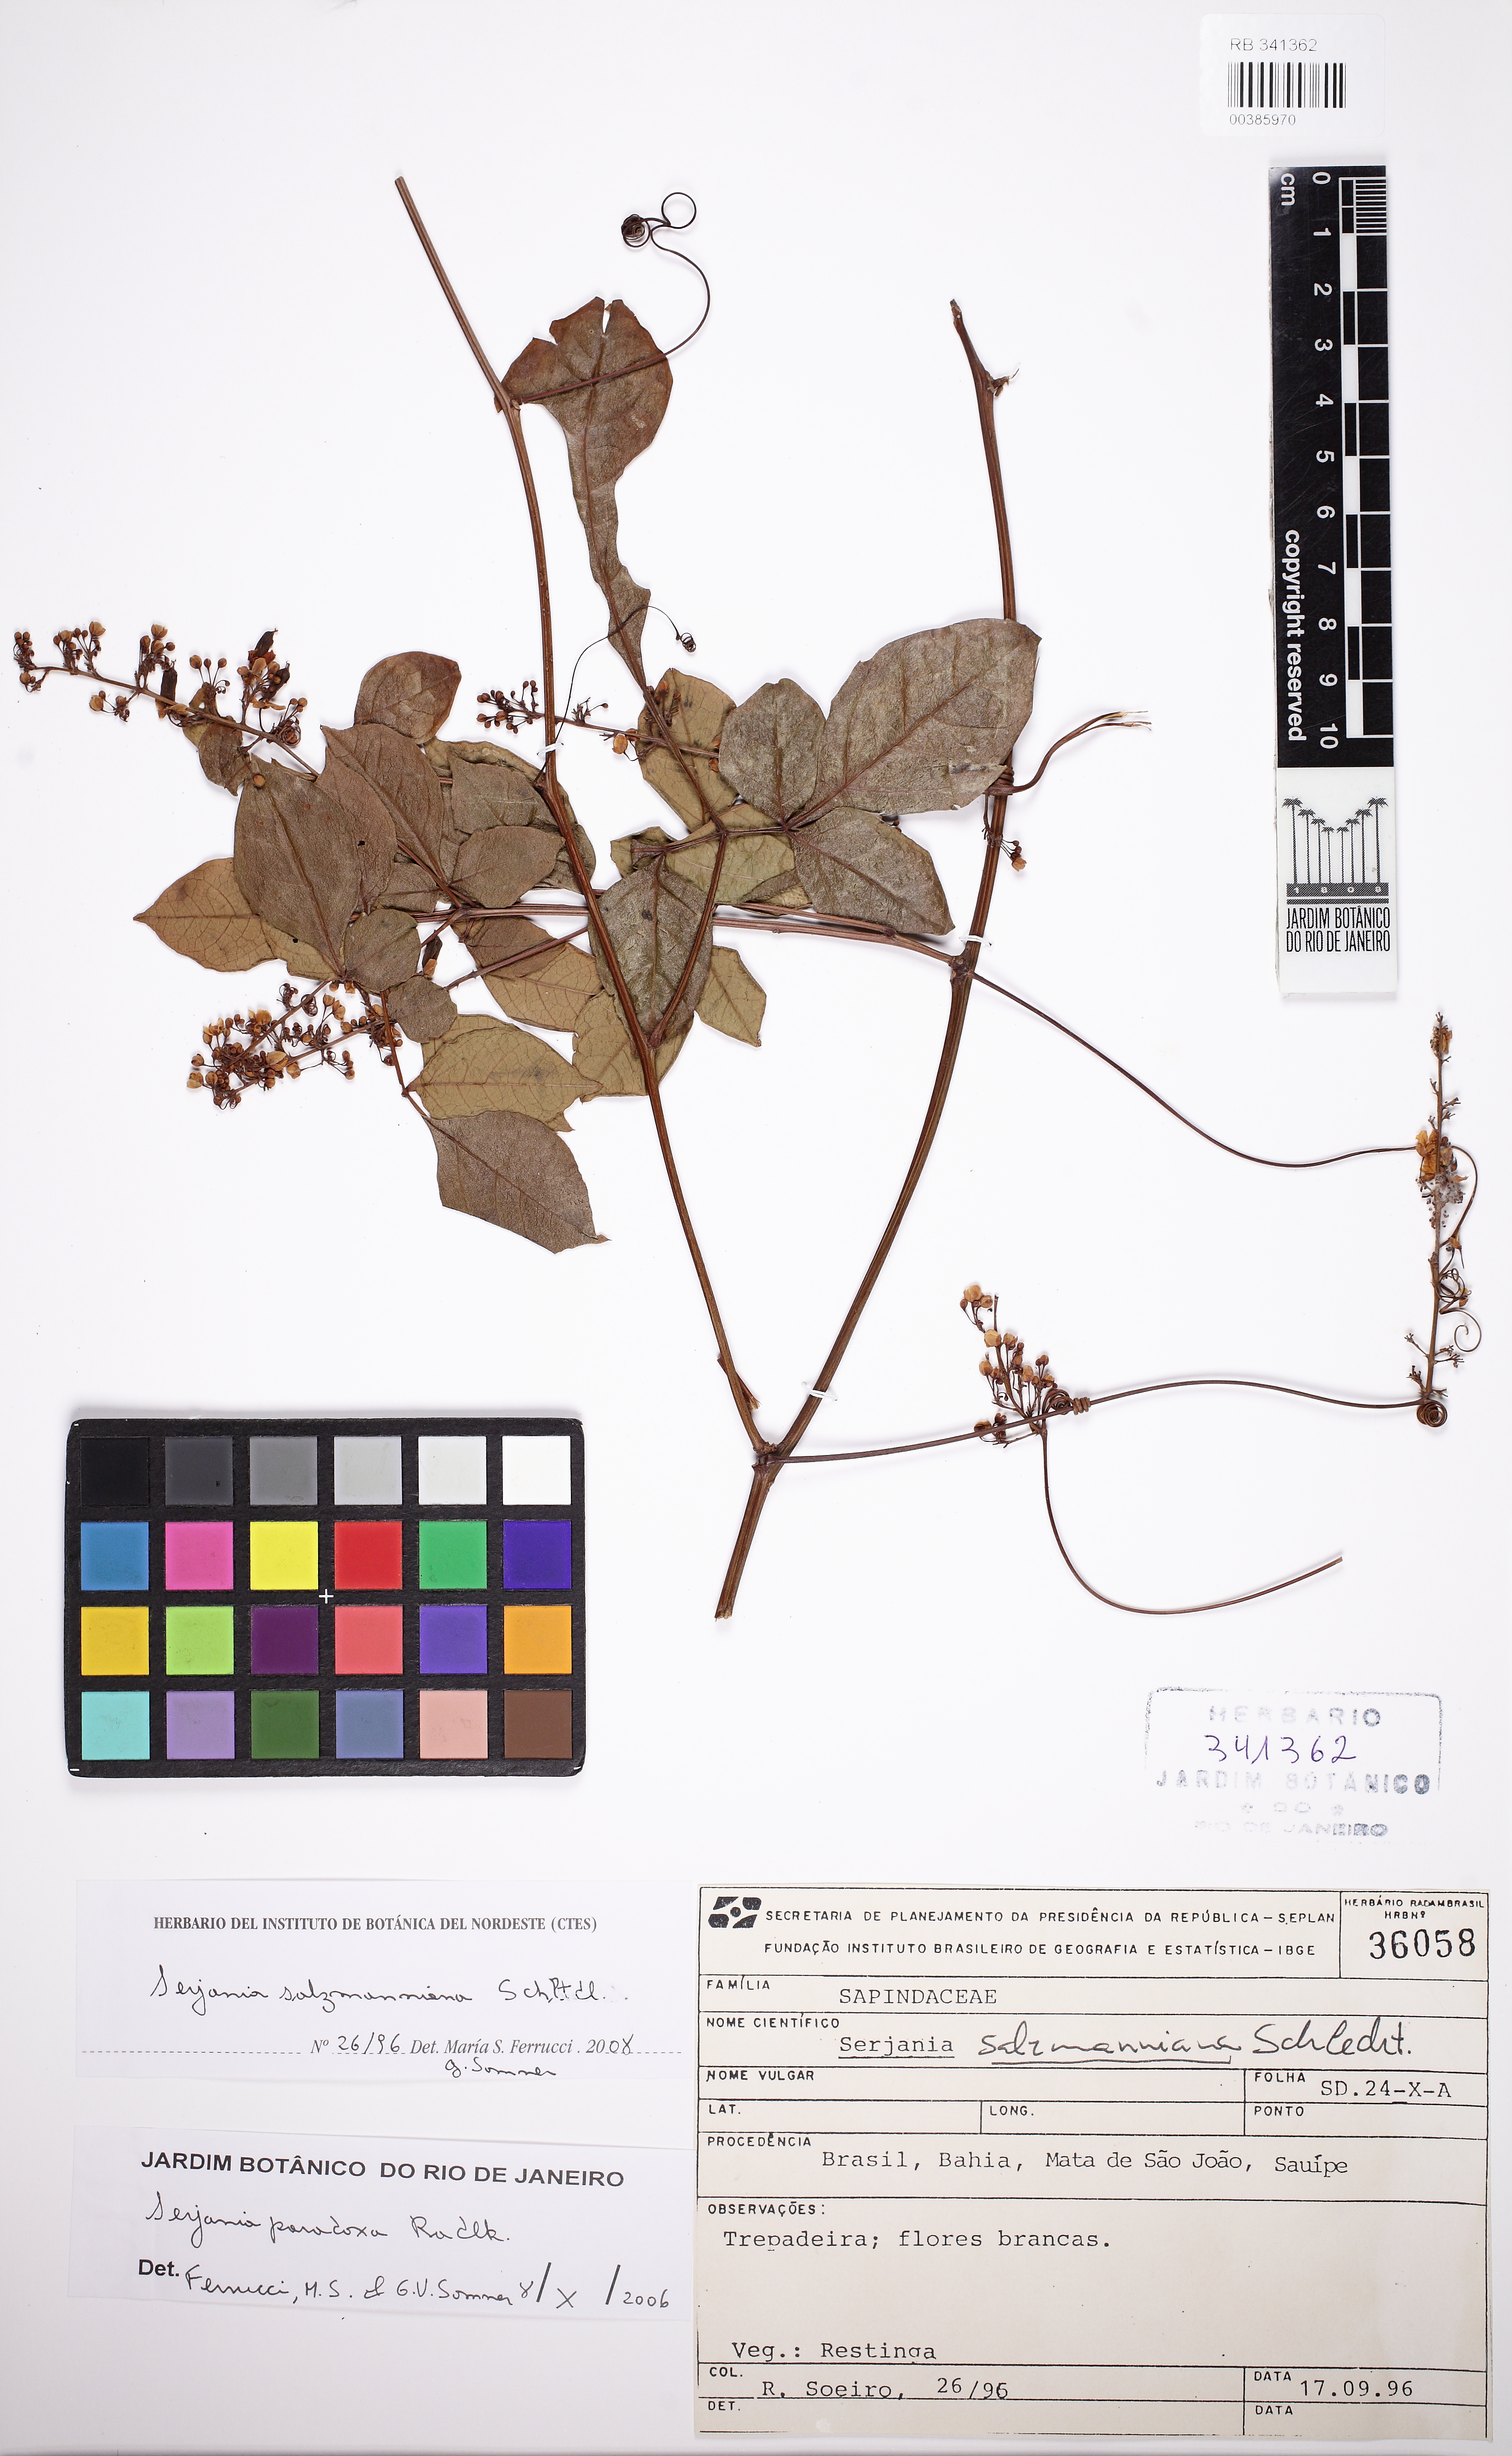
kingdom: Plantae
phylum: Tracheophyta
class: Magnoliopsida
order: Sapindales
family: Sapindaceae
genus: Serjania
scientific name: Serjania salzmanniana
